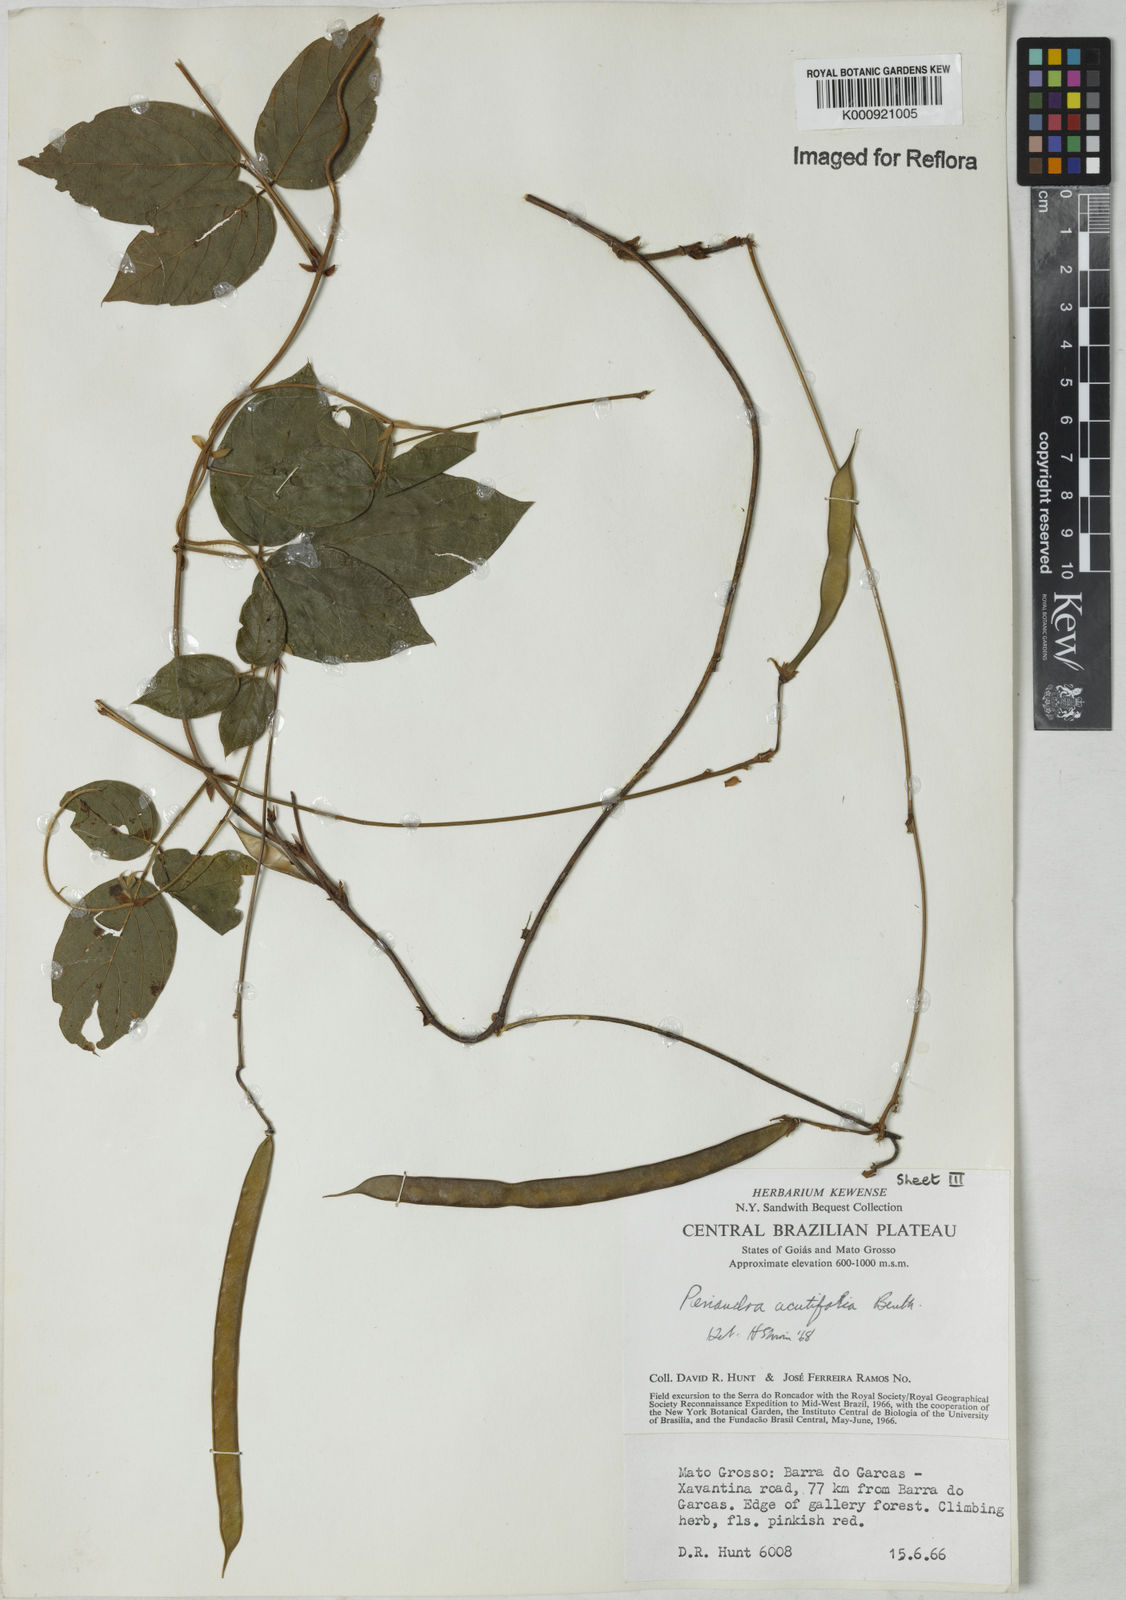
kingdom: Plantae
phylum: Tracheophyta
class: Magnoliopsida
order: Fabales
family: Fabaceae
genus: Periandra
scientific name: Periandra coccinea
